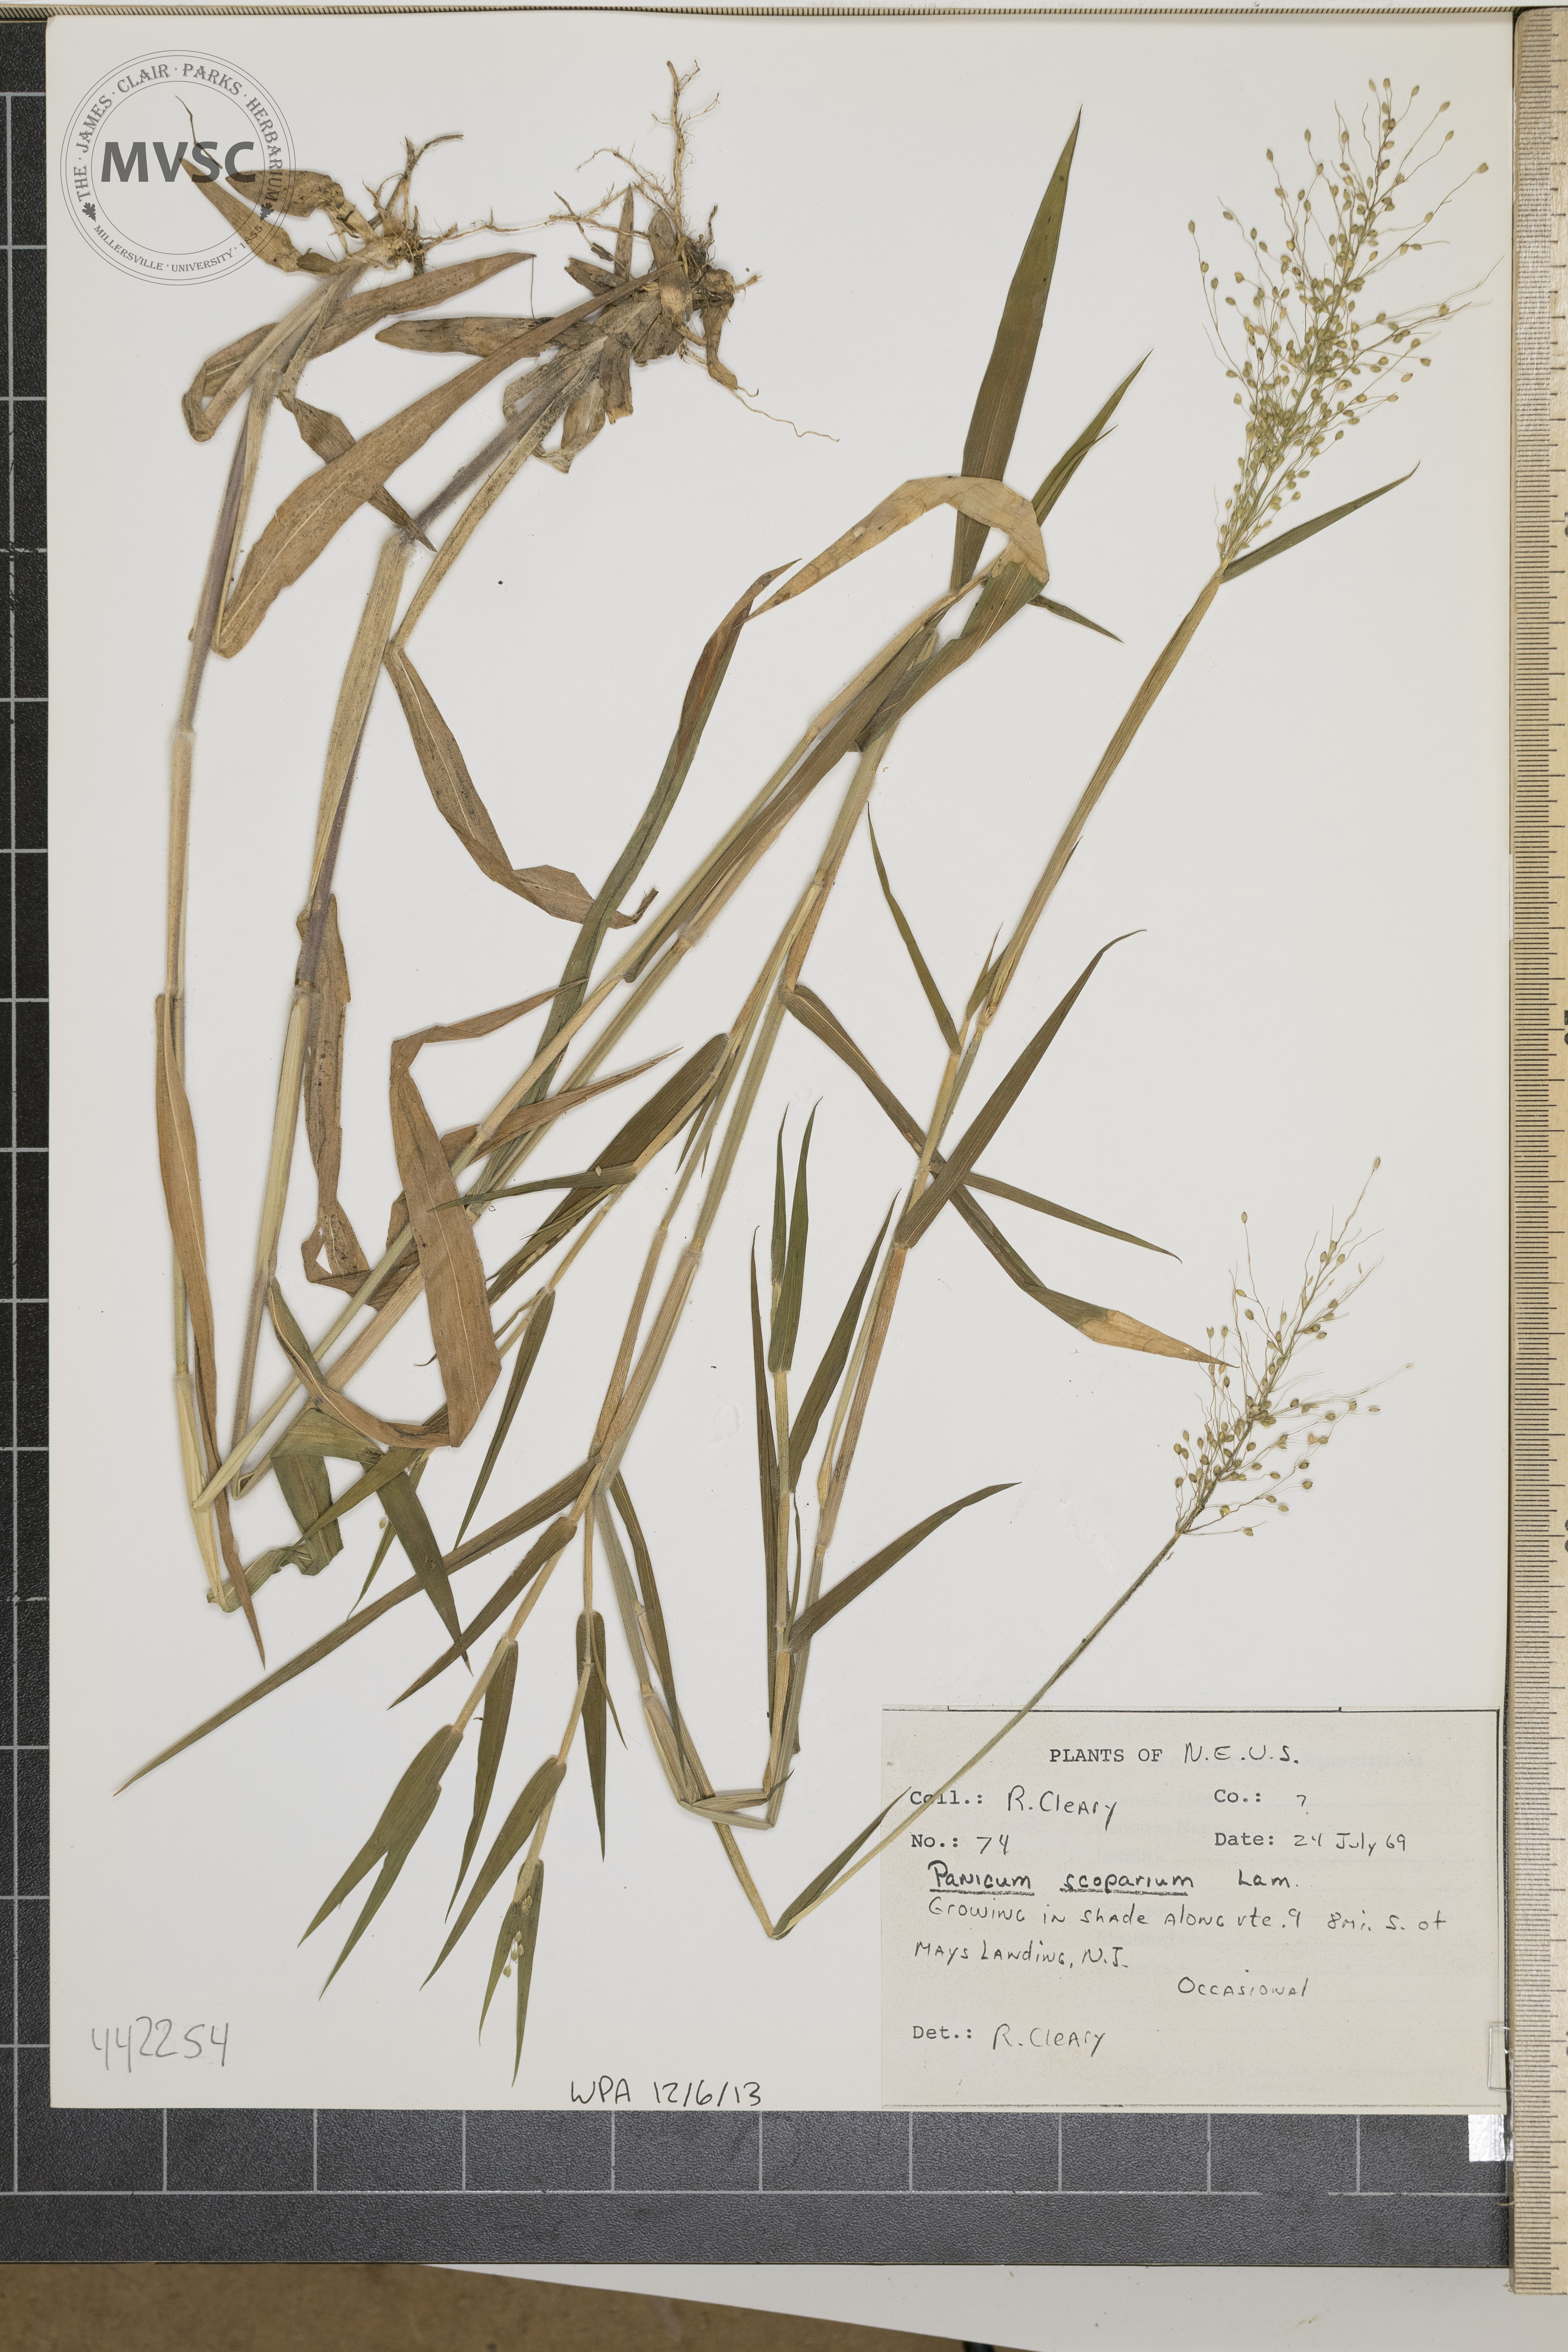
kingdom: Plantae
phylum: Tracheophyta
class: Liliopsida
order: Poales
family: Poaceae
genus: Dichanthelium
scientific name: Dichanthelium scoparium
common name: Velvety panic grass
